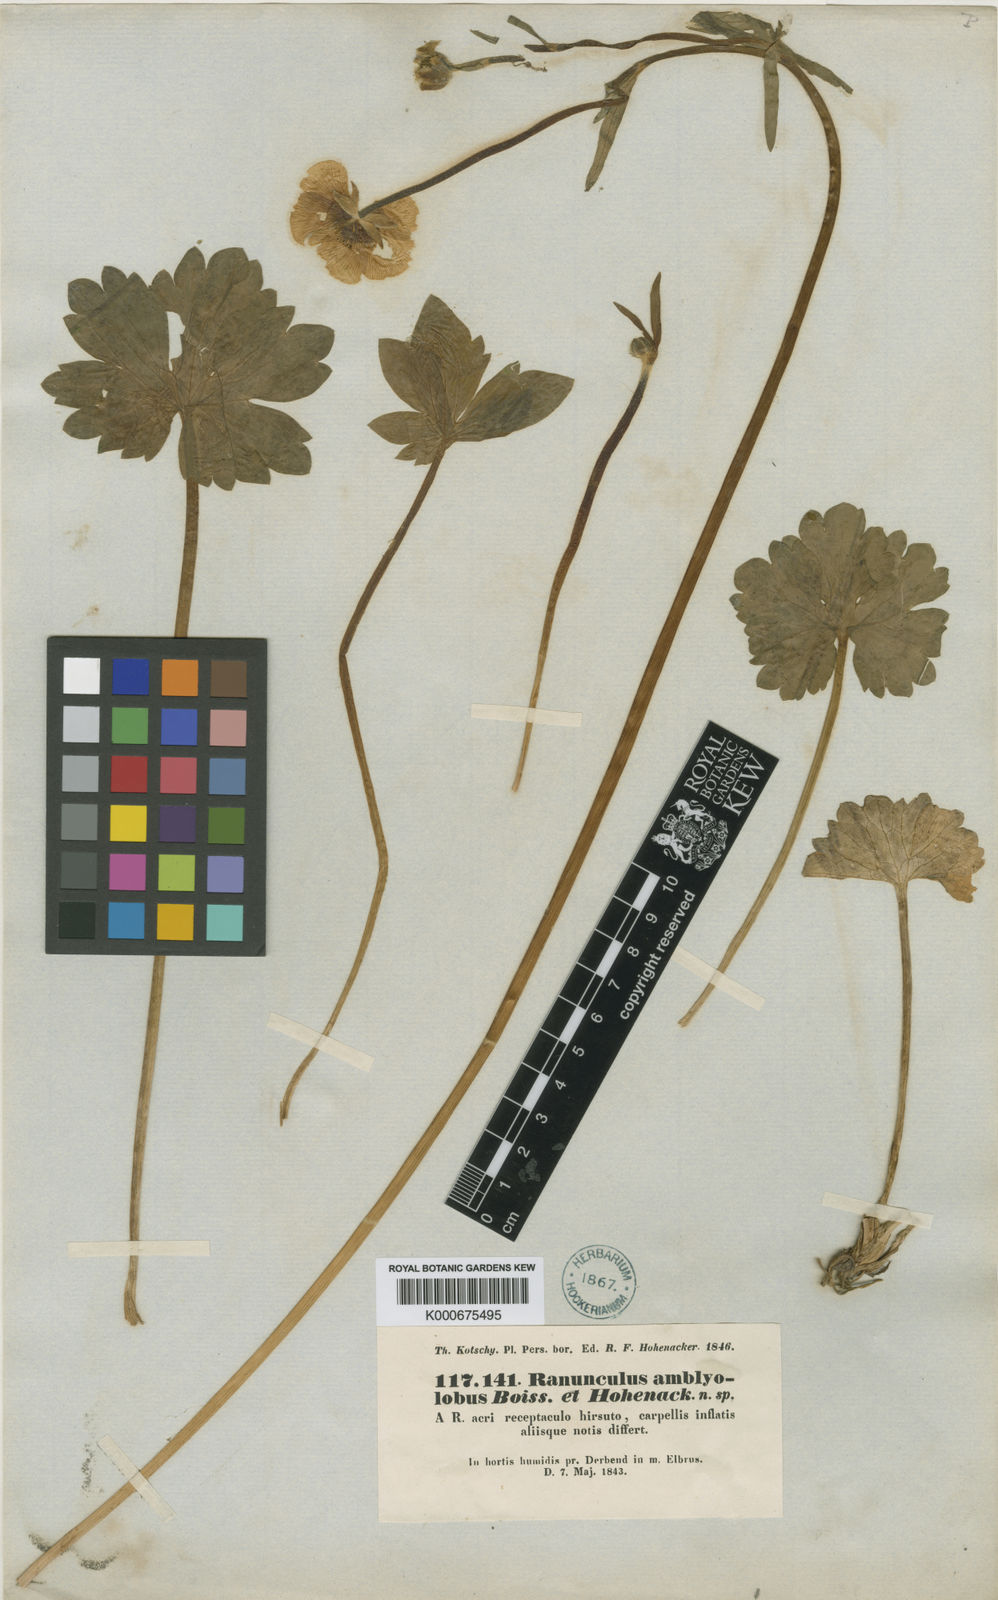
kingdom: Plantae
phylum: Tracheophyta
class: Magnoliopsida
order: Ranunculales
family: Ranunculaceae
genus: Ranunculus
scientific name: Ranunculus amblyolobus
